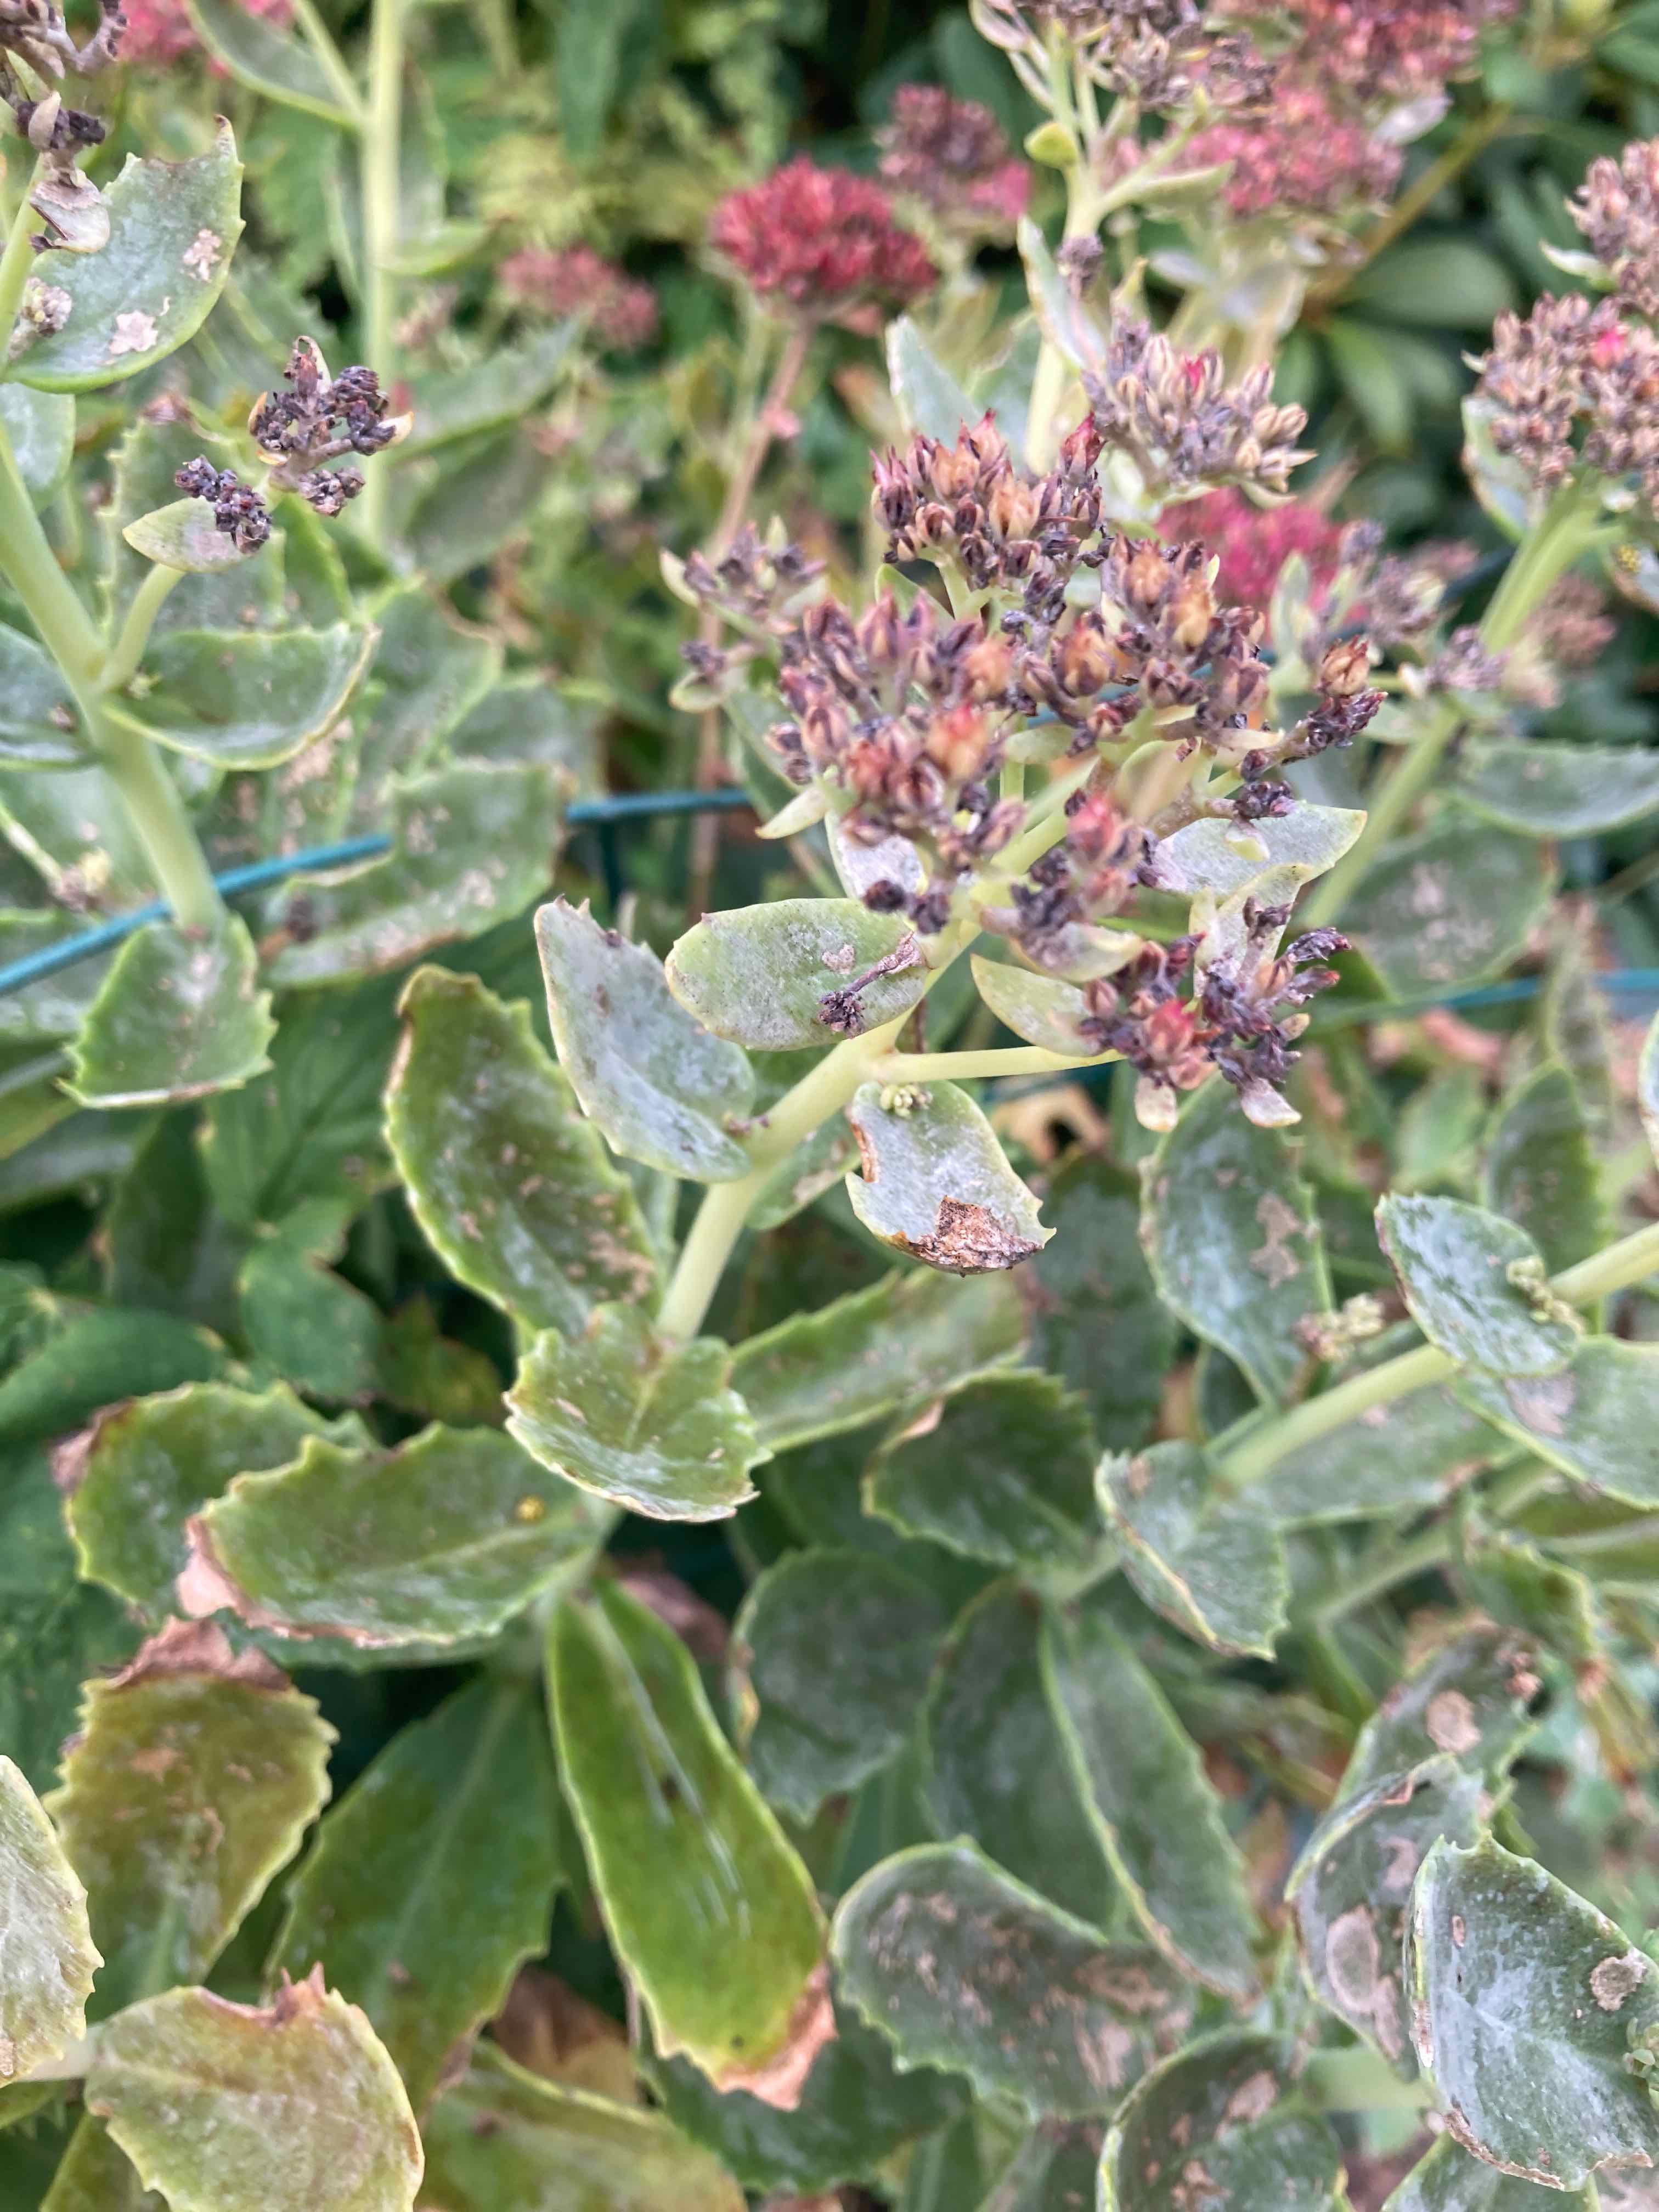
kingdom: Fungi
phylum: Ascomycota
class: Leotiomycetes
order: Helotiales
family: Erysiphaceae
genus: Erysiphe
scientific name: Erysiphe
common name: meldug
